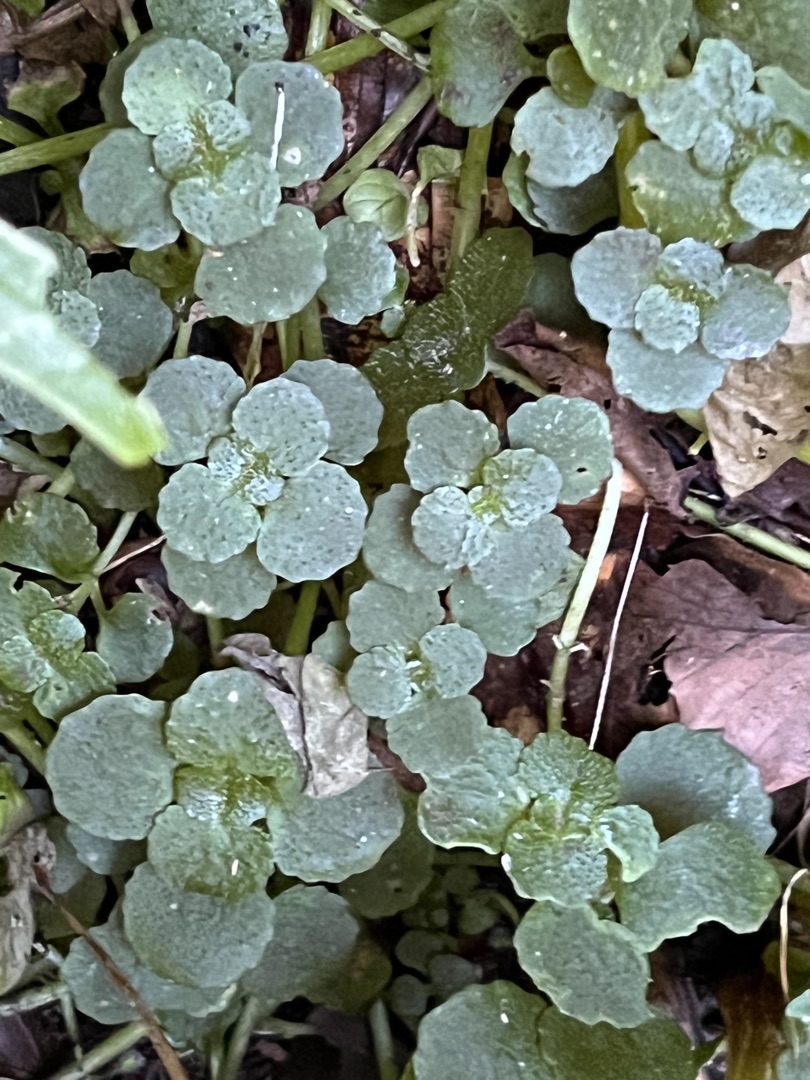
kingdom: Plantae
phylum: Tracheophyta
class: Magnoliopsida
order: Saxifragales
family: Saxifragaceae
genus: Chrysosplenium
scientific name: Chrysosplenium oppositifolium
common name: Småbladet milturt
